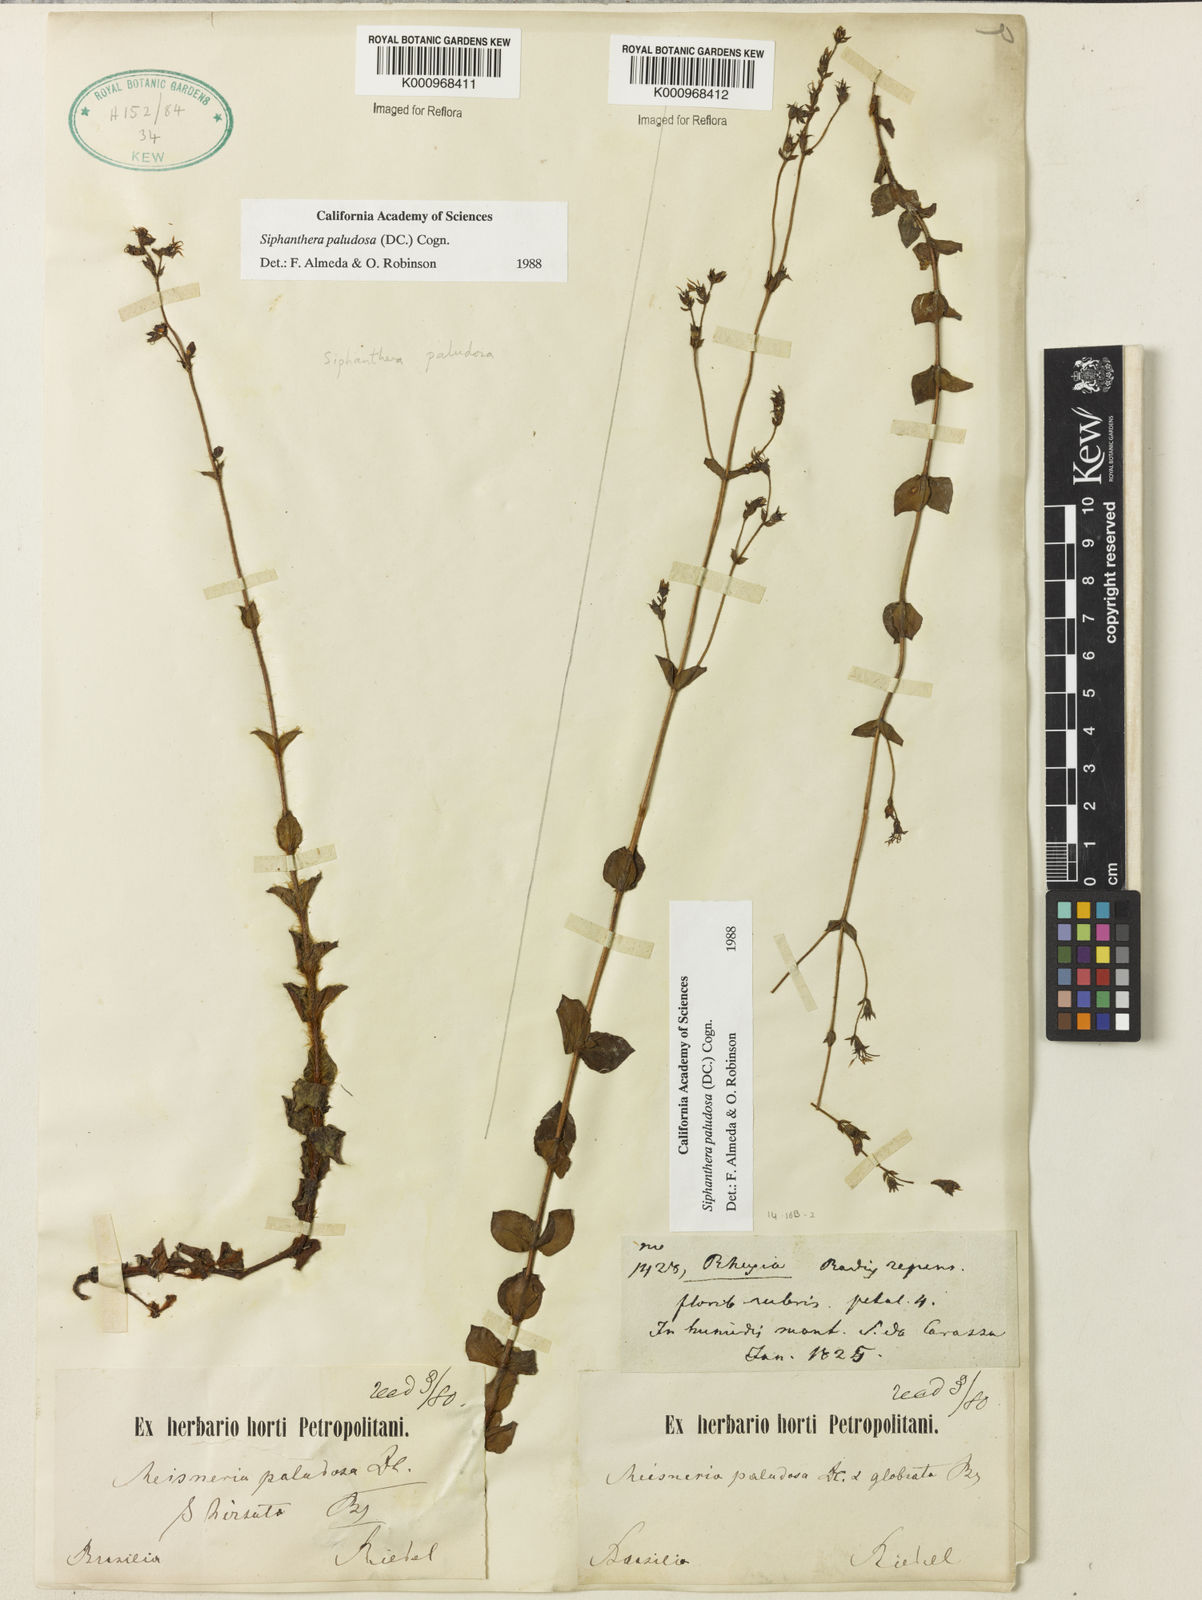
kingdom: Plantae
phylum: Tracheophyta
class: Magnoliopsida
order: Myrtales
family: Melastomataceae
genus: Siphanthera
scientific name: Siphanthera paludosa
